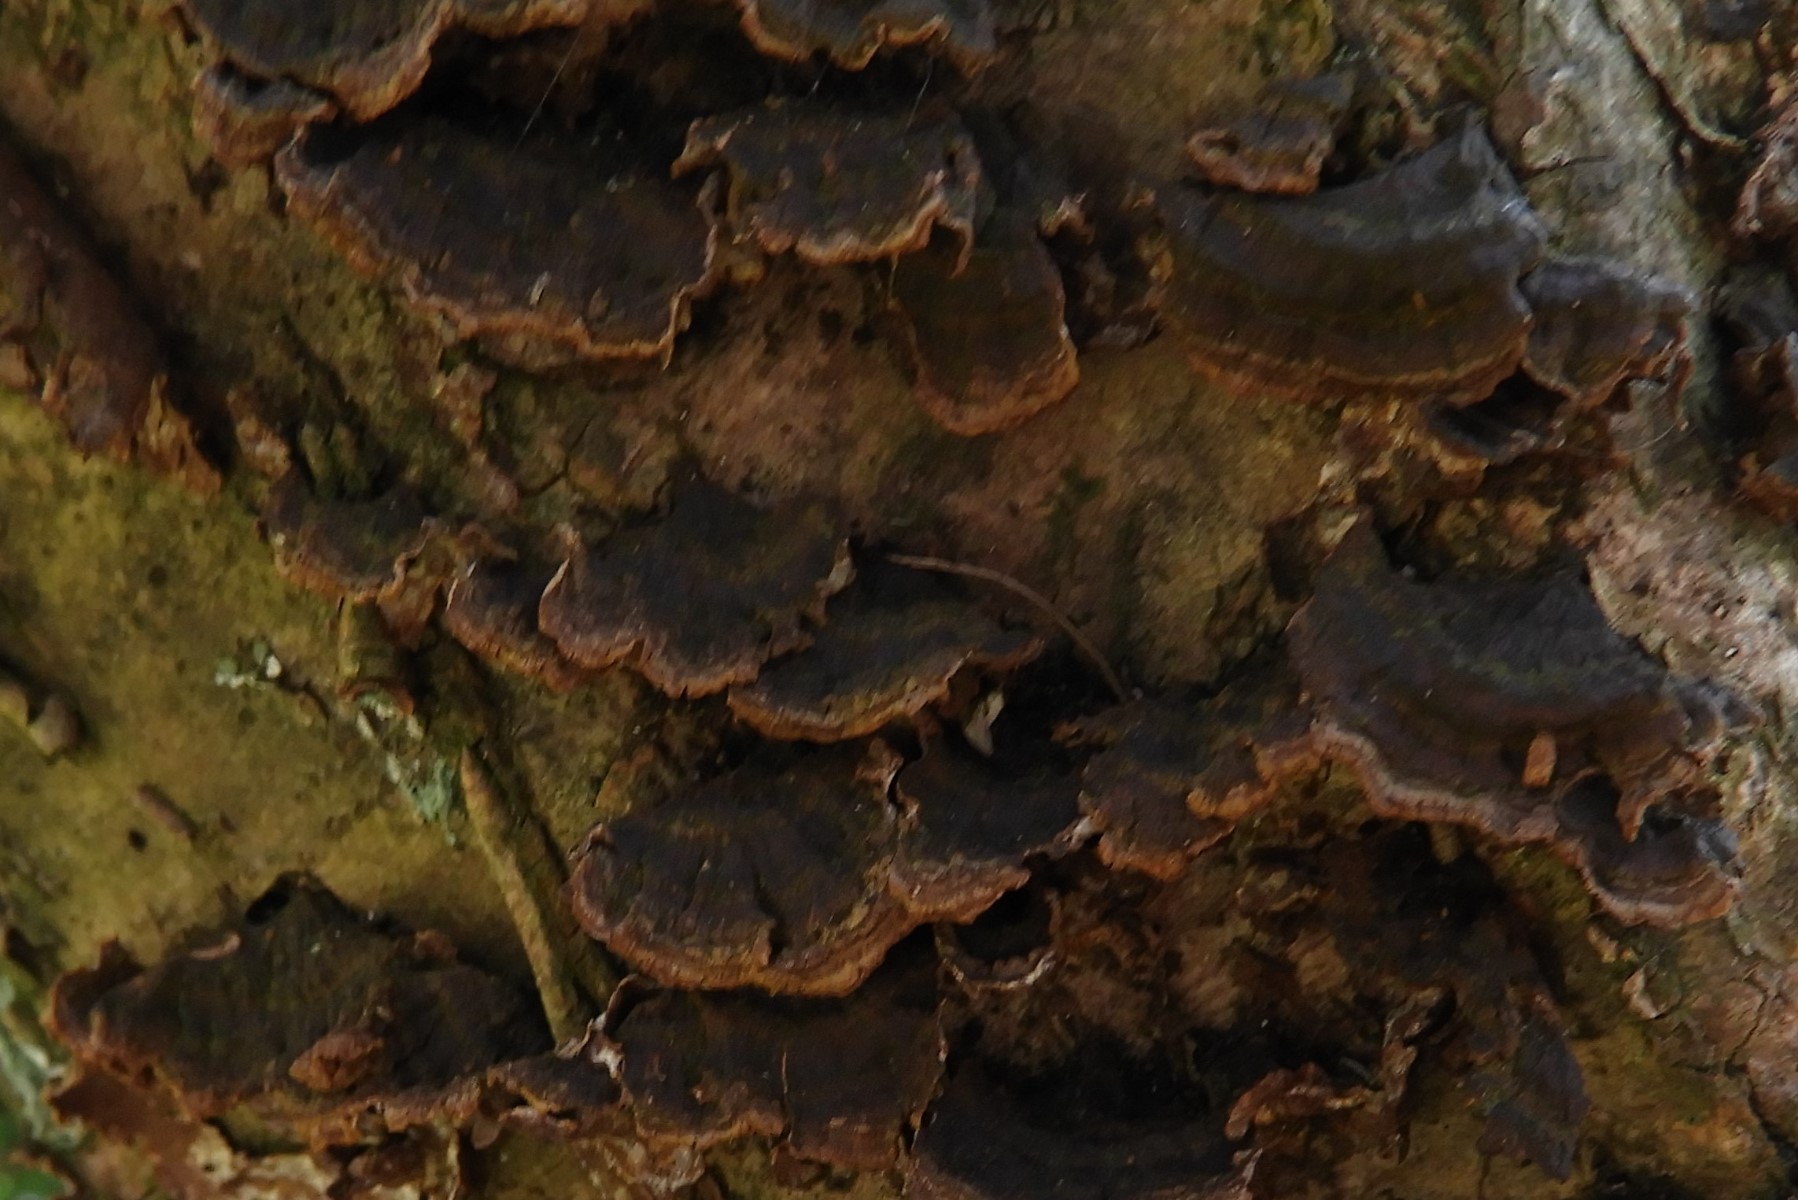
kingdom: Fungi
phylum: Basidiomycota
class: Agaricomycetes
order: Hymenochaetales
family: Hymenochaetaceae
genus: Hydnoporia
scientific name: Hydnoporia tabacina
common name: tobaksbrun ruslædersvamp
